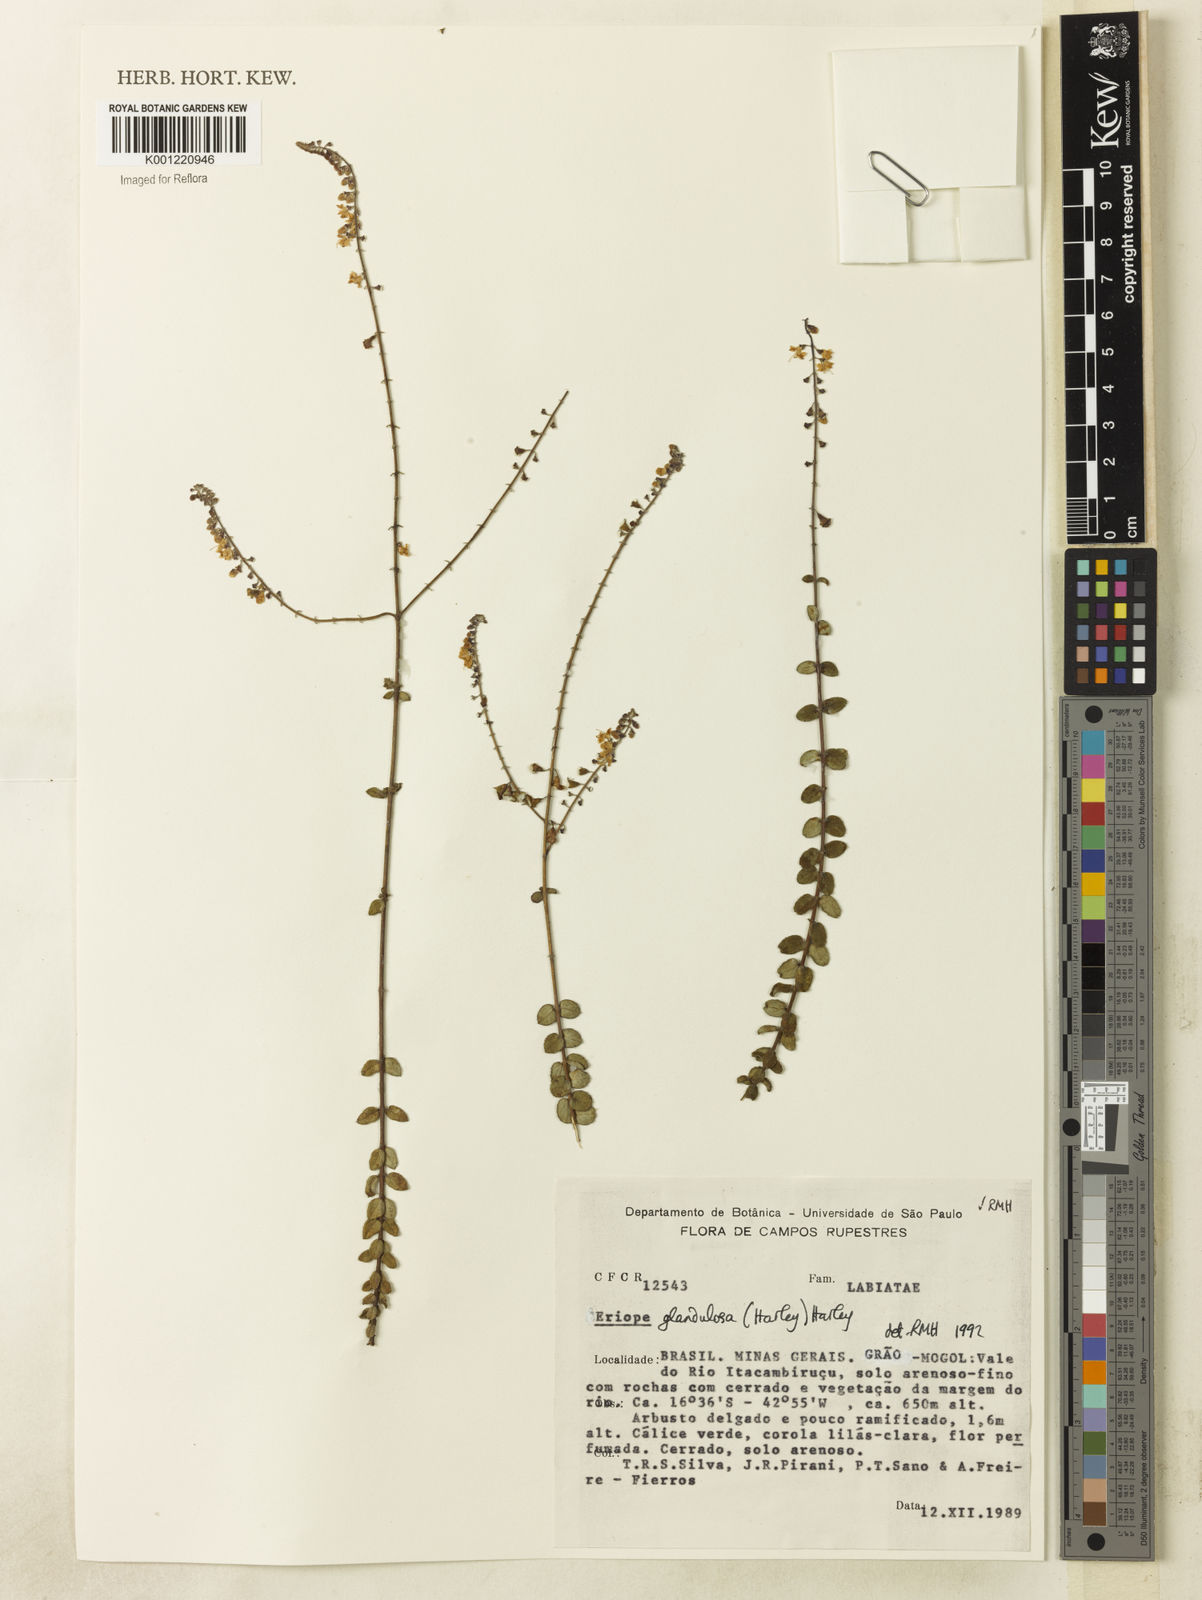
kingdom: Plantae
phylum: Tracheophyta
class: Magnoliopsida
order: Lamiales
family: Lamiaceae
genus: Eriope
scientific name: Eriope glandulosa
